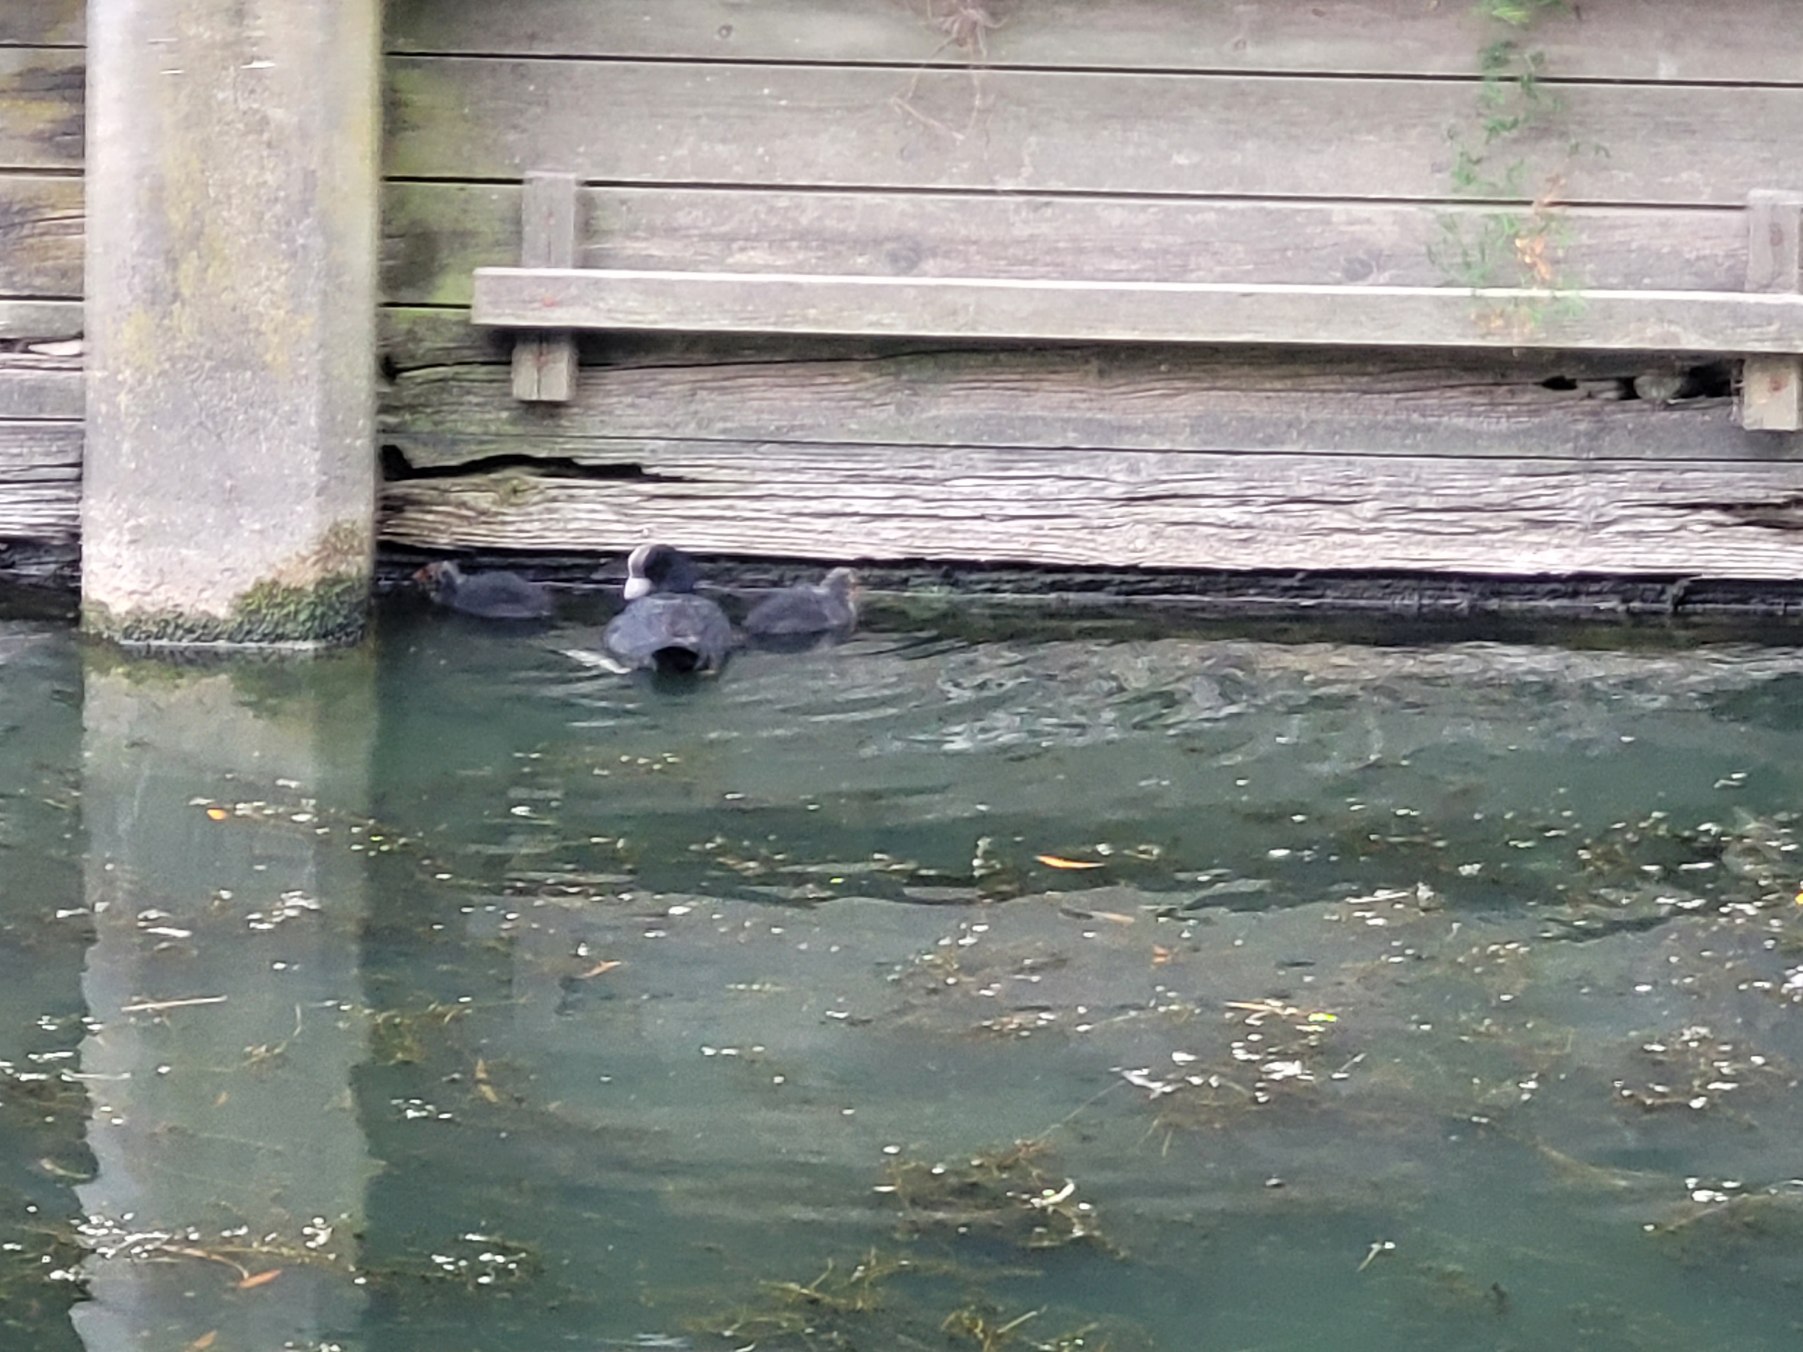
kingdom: Animalia
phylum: Chordata
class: Aves
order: Gruiformes
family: Rallidae
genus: Fulica
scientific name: Fulica atra
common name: Blishøne
